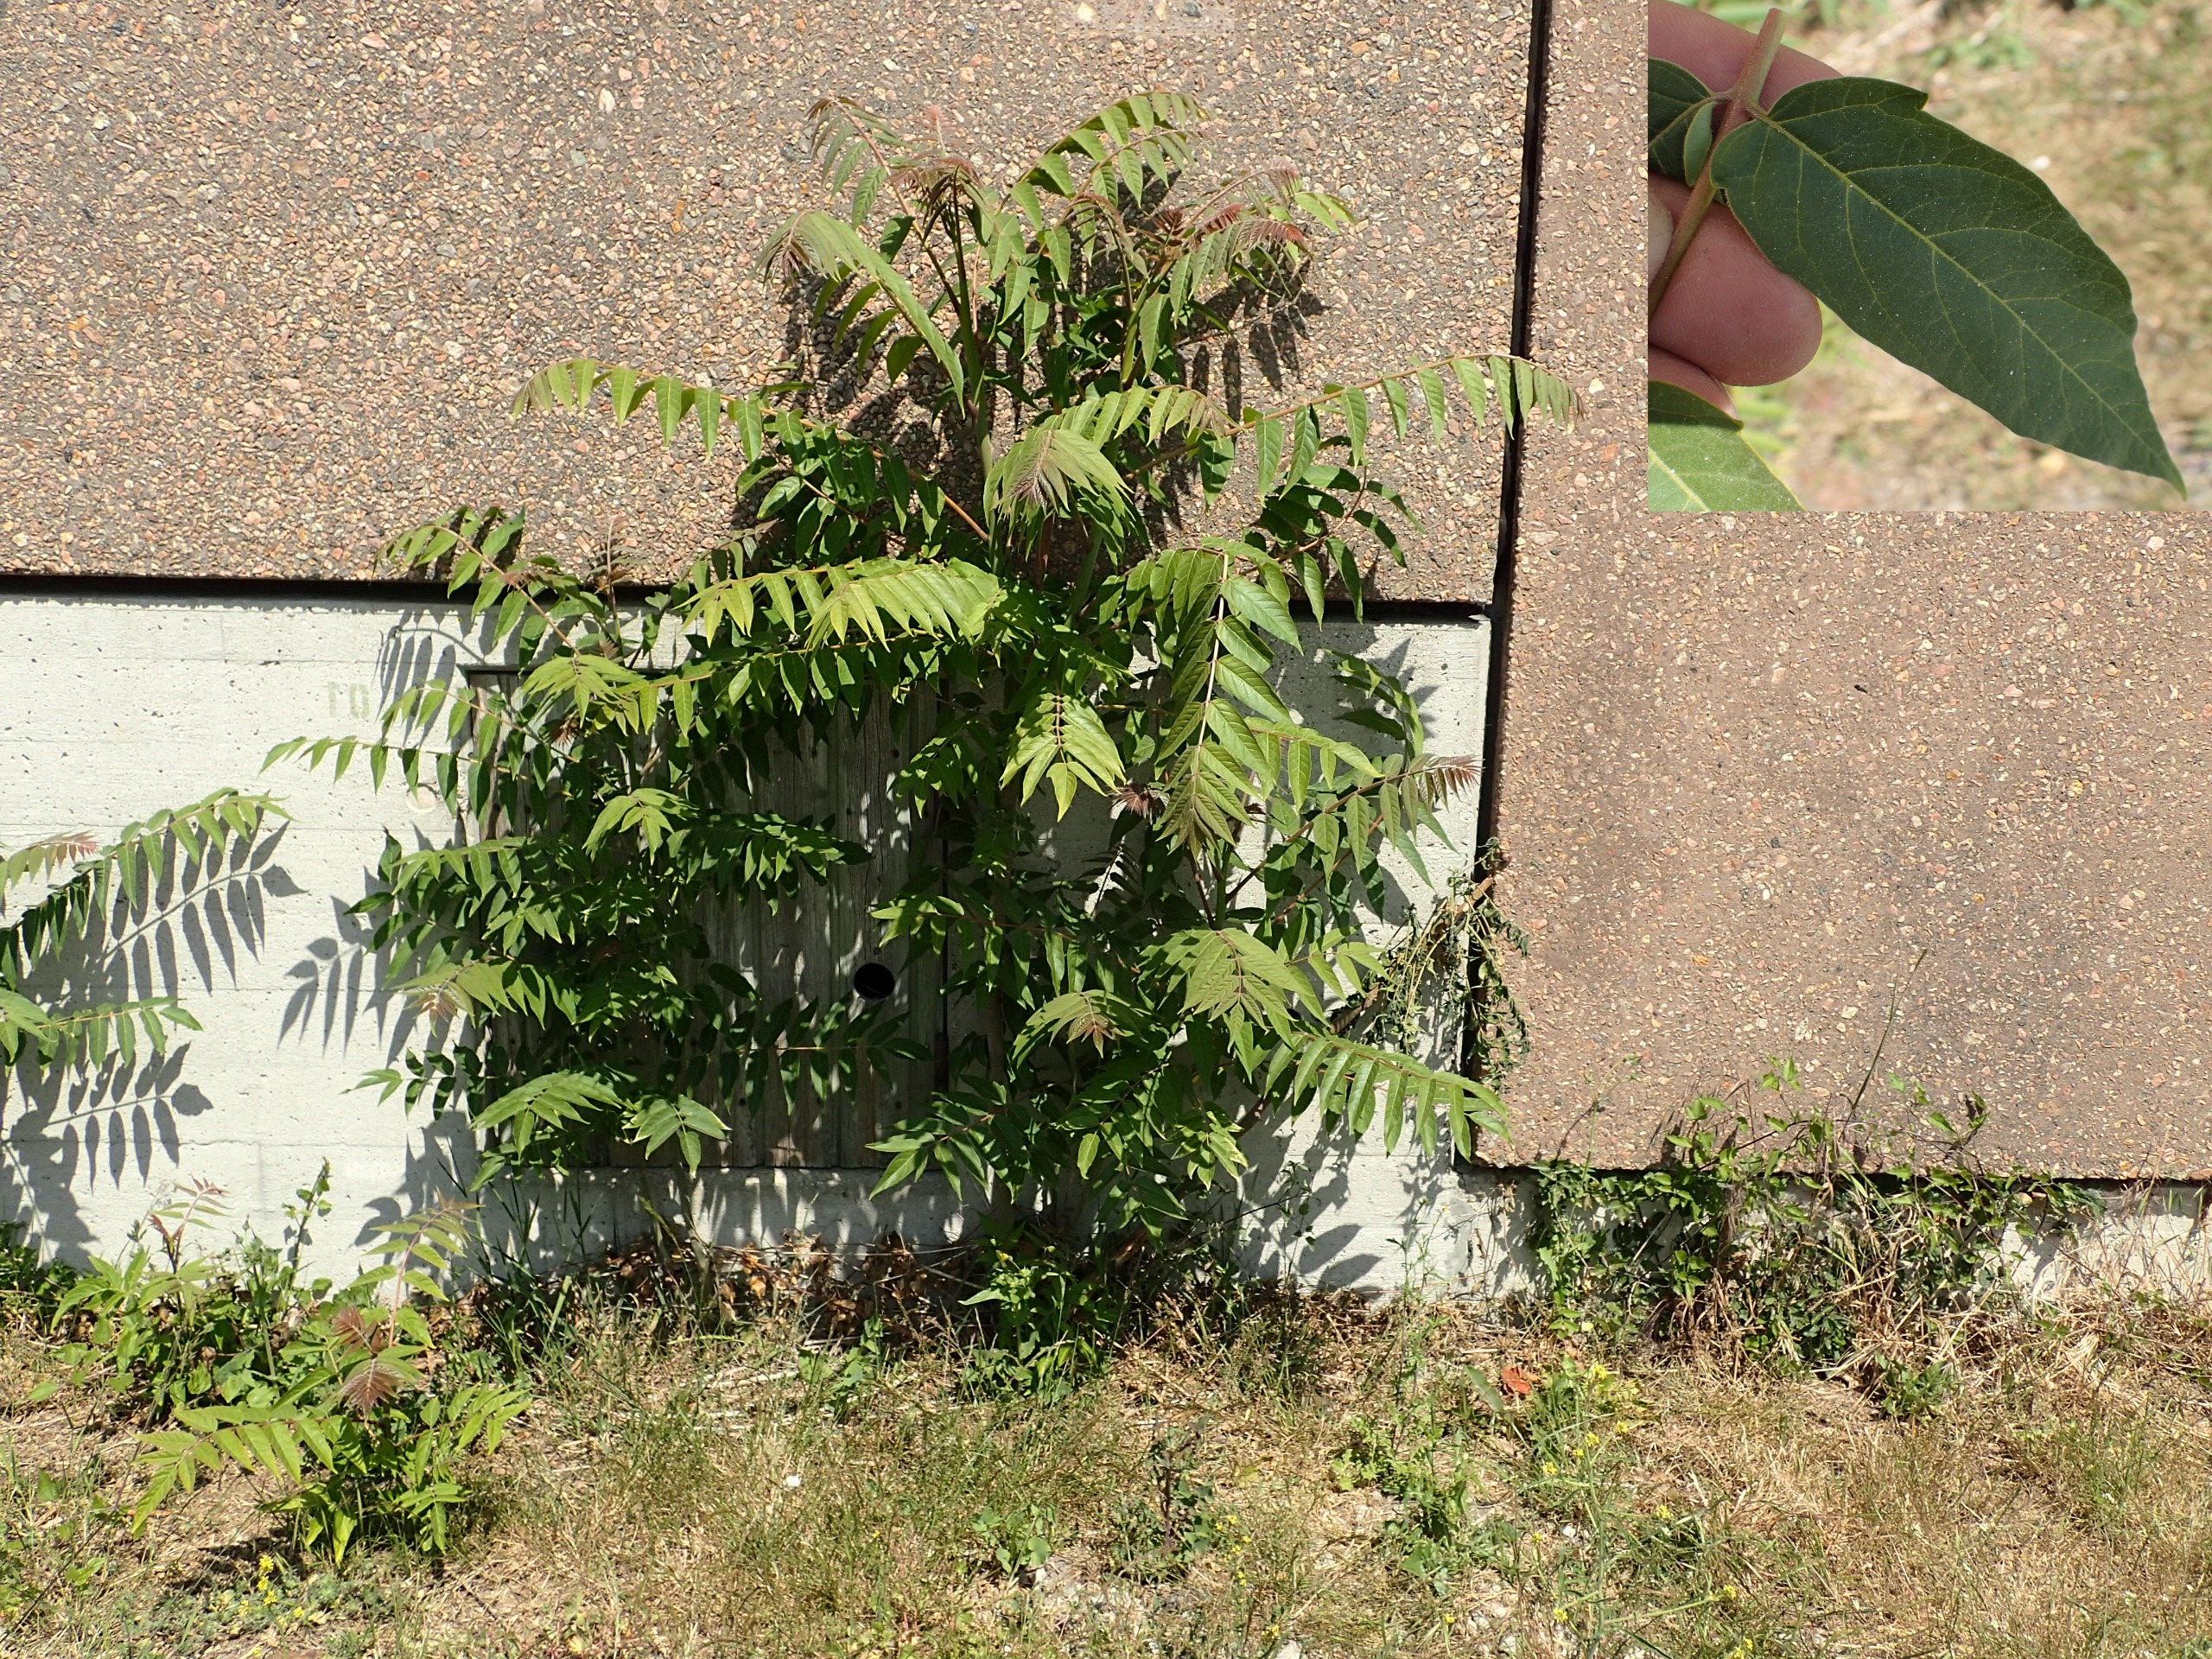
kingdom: Plantae
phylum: Tracheophyta
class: Magnoliopsida
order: Sapindales
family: Simaroubaceae
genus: Ailanthus
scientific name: Ailanthus altissima
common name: Skyrækker
